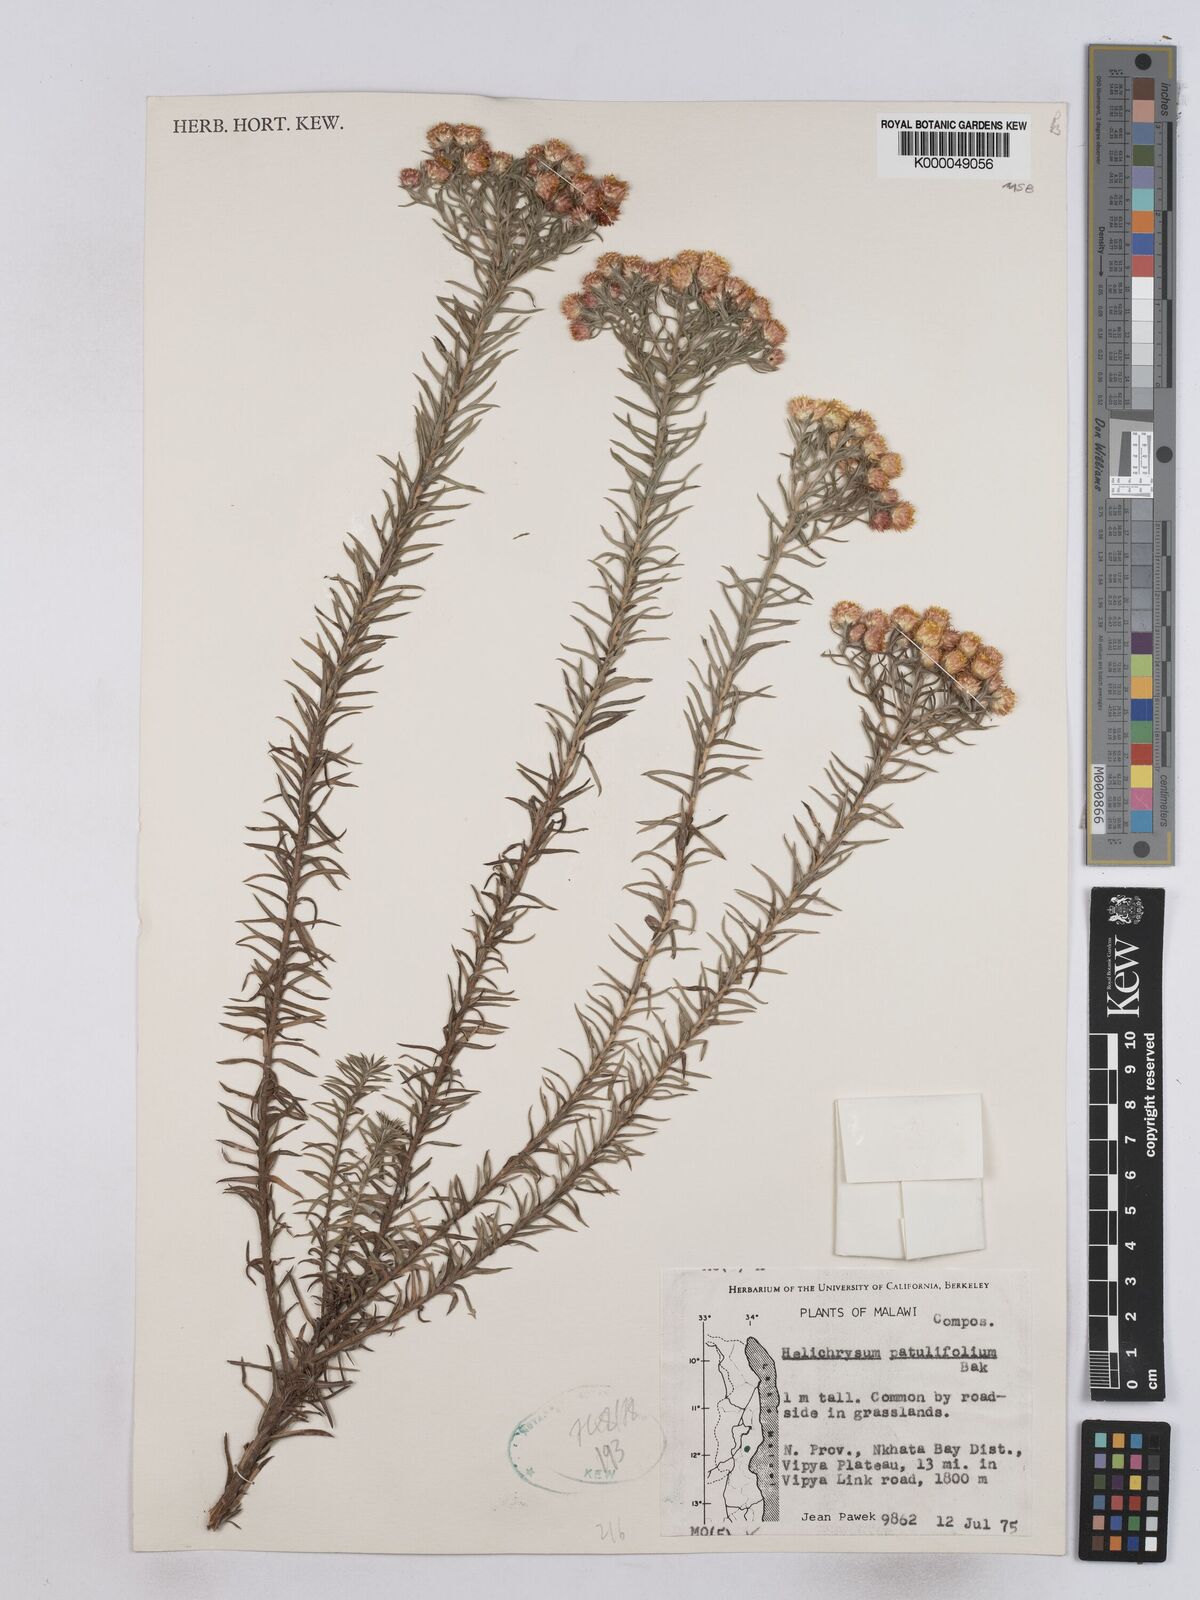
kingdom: Plantae
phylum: Tracheophyta
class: Magnoliopsida
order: Asterales
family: Asteraceae
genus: Helichrysum
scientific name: Helichrysum patulifolium
